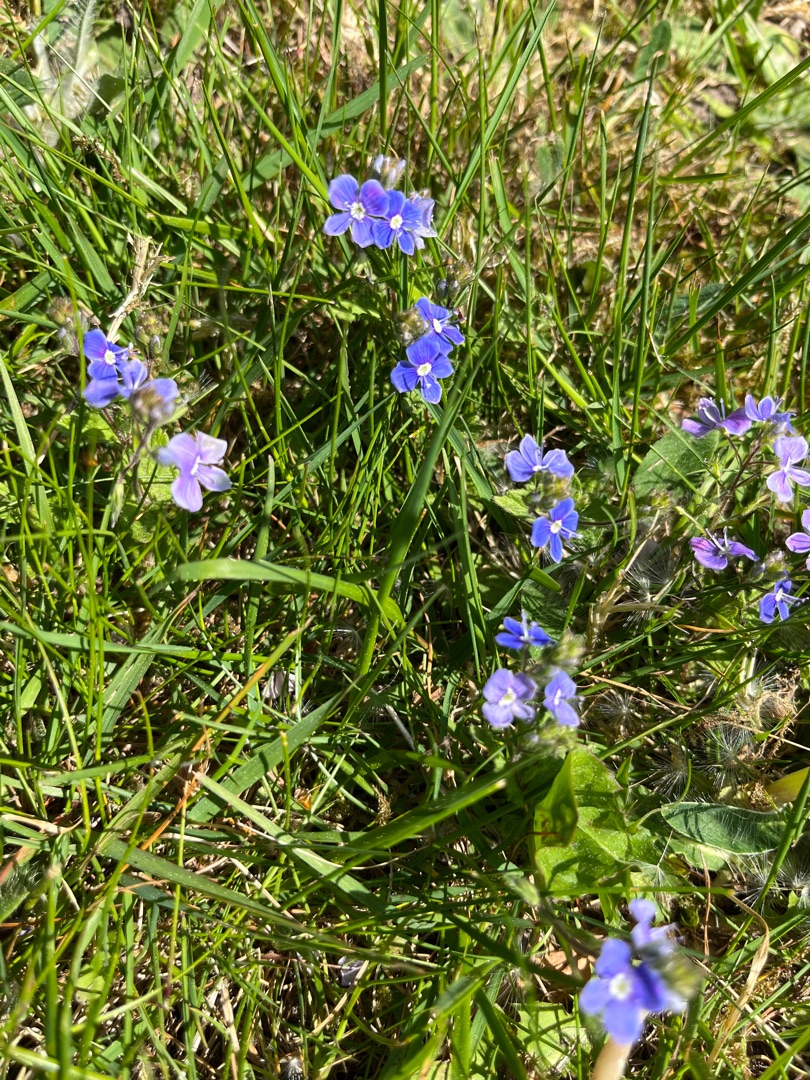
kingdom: Plantae
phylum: Tracheophyta
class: Magnoliopsida
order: Lamiales
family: Plantaginaceae
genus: Veronica
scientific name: Veronica chamaedrys
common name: Tveskægget ærenpris
